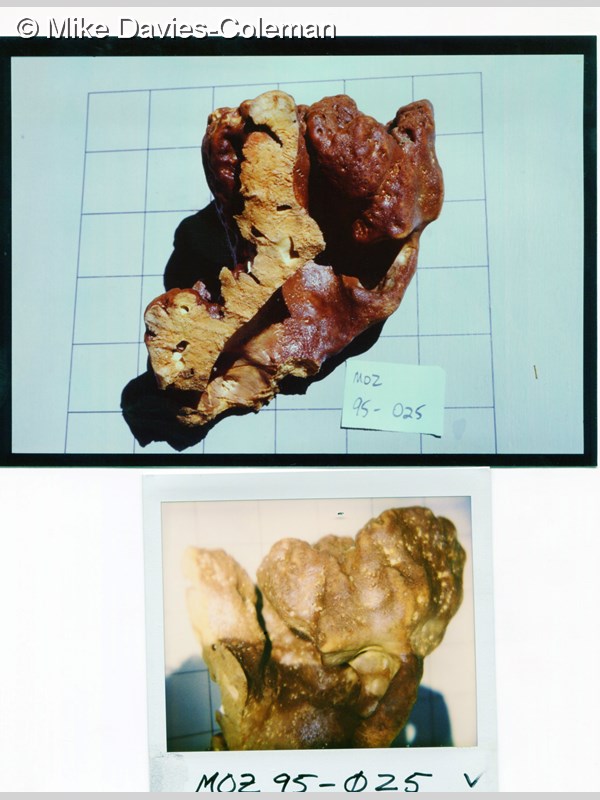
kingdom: Animalia
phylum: Porifera
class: Demospongiae
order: Clionaida
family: Clionaidae
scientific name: Clionaidae
